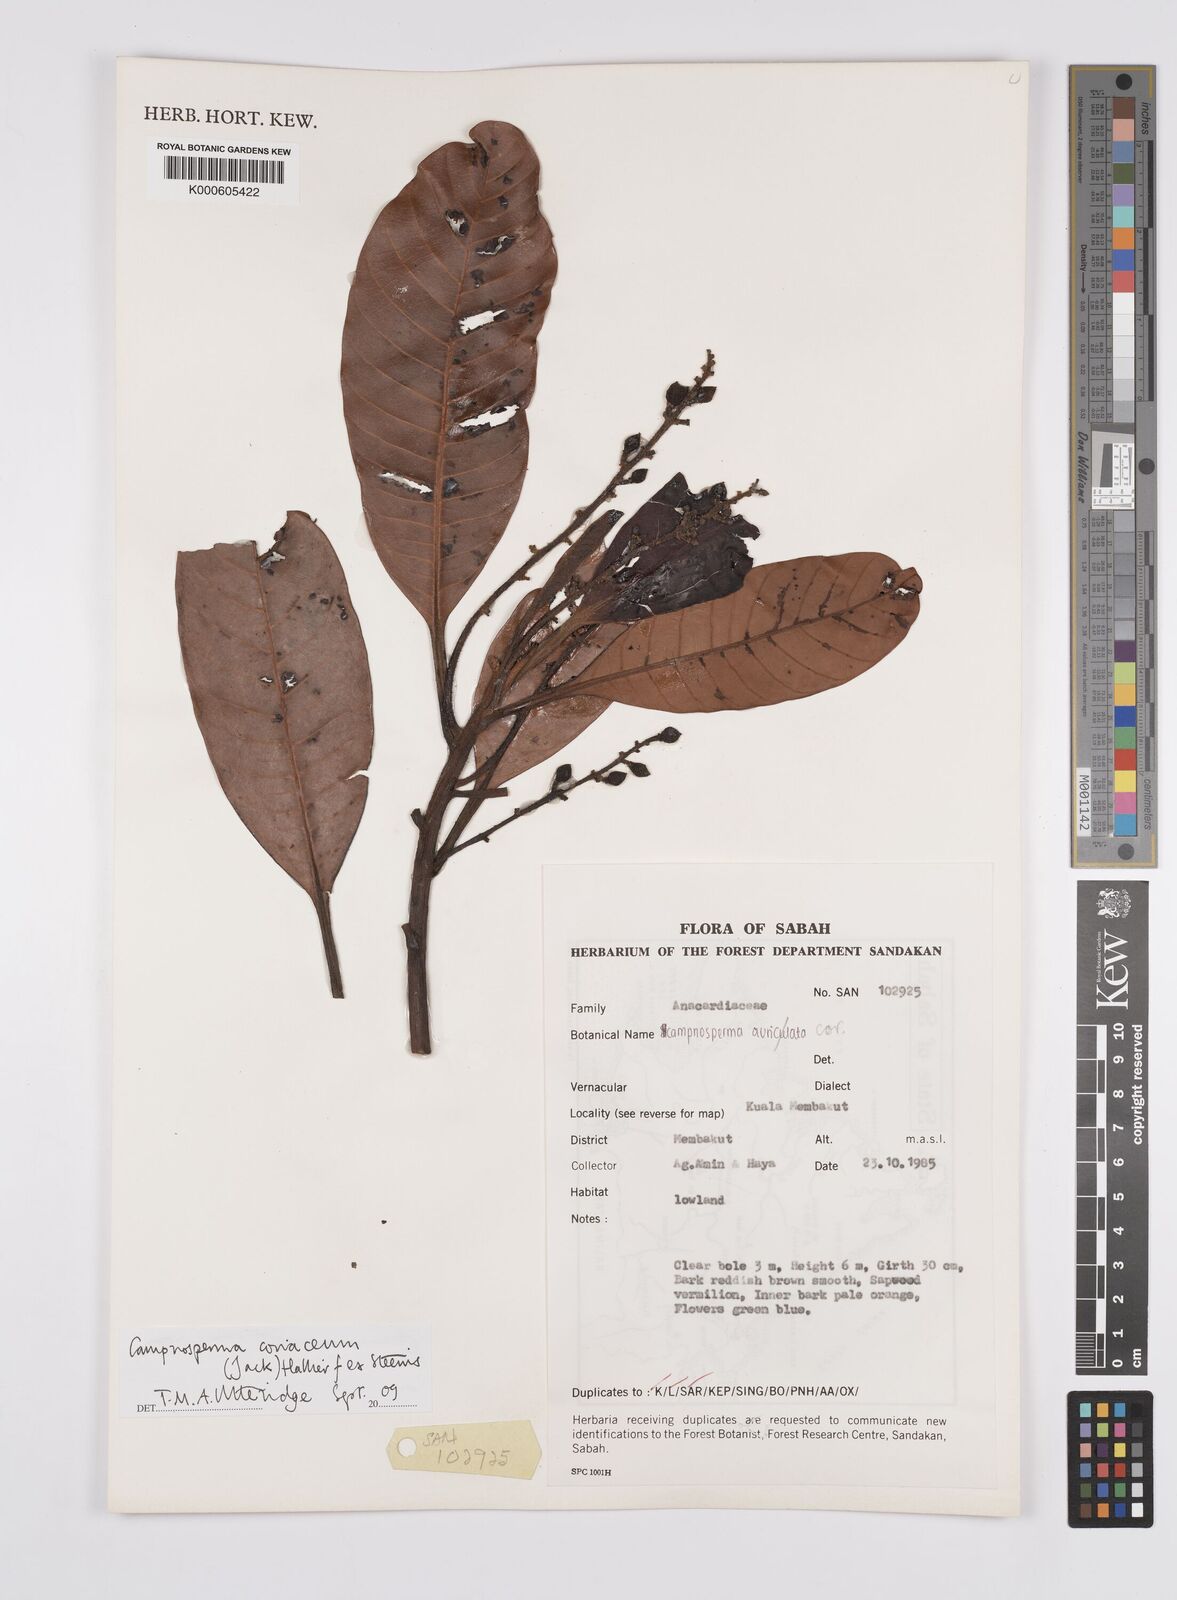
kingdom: Plantae
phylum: Tracheophyta
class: Magnoliopsida
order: Sapindales
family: Anacardiaceae
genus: Campnosperma
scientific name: Campnosperma
